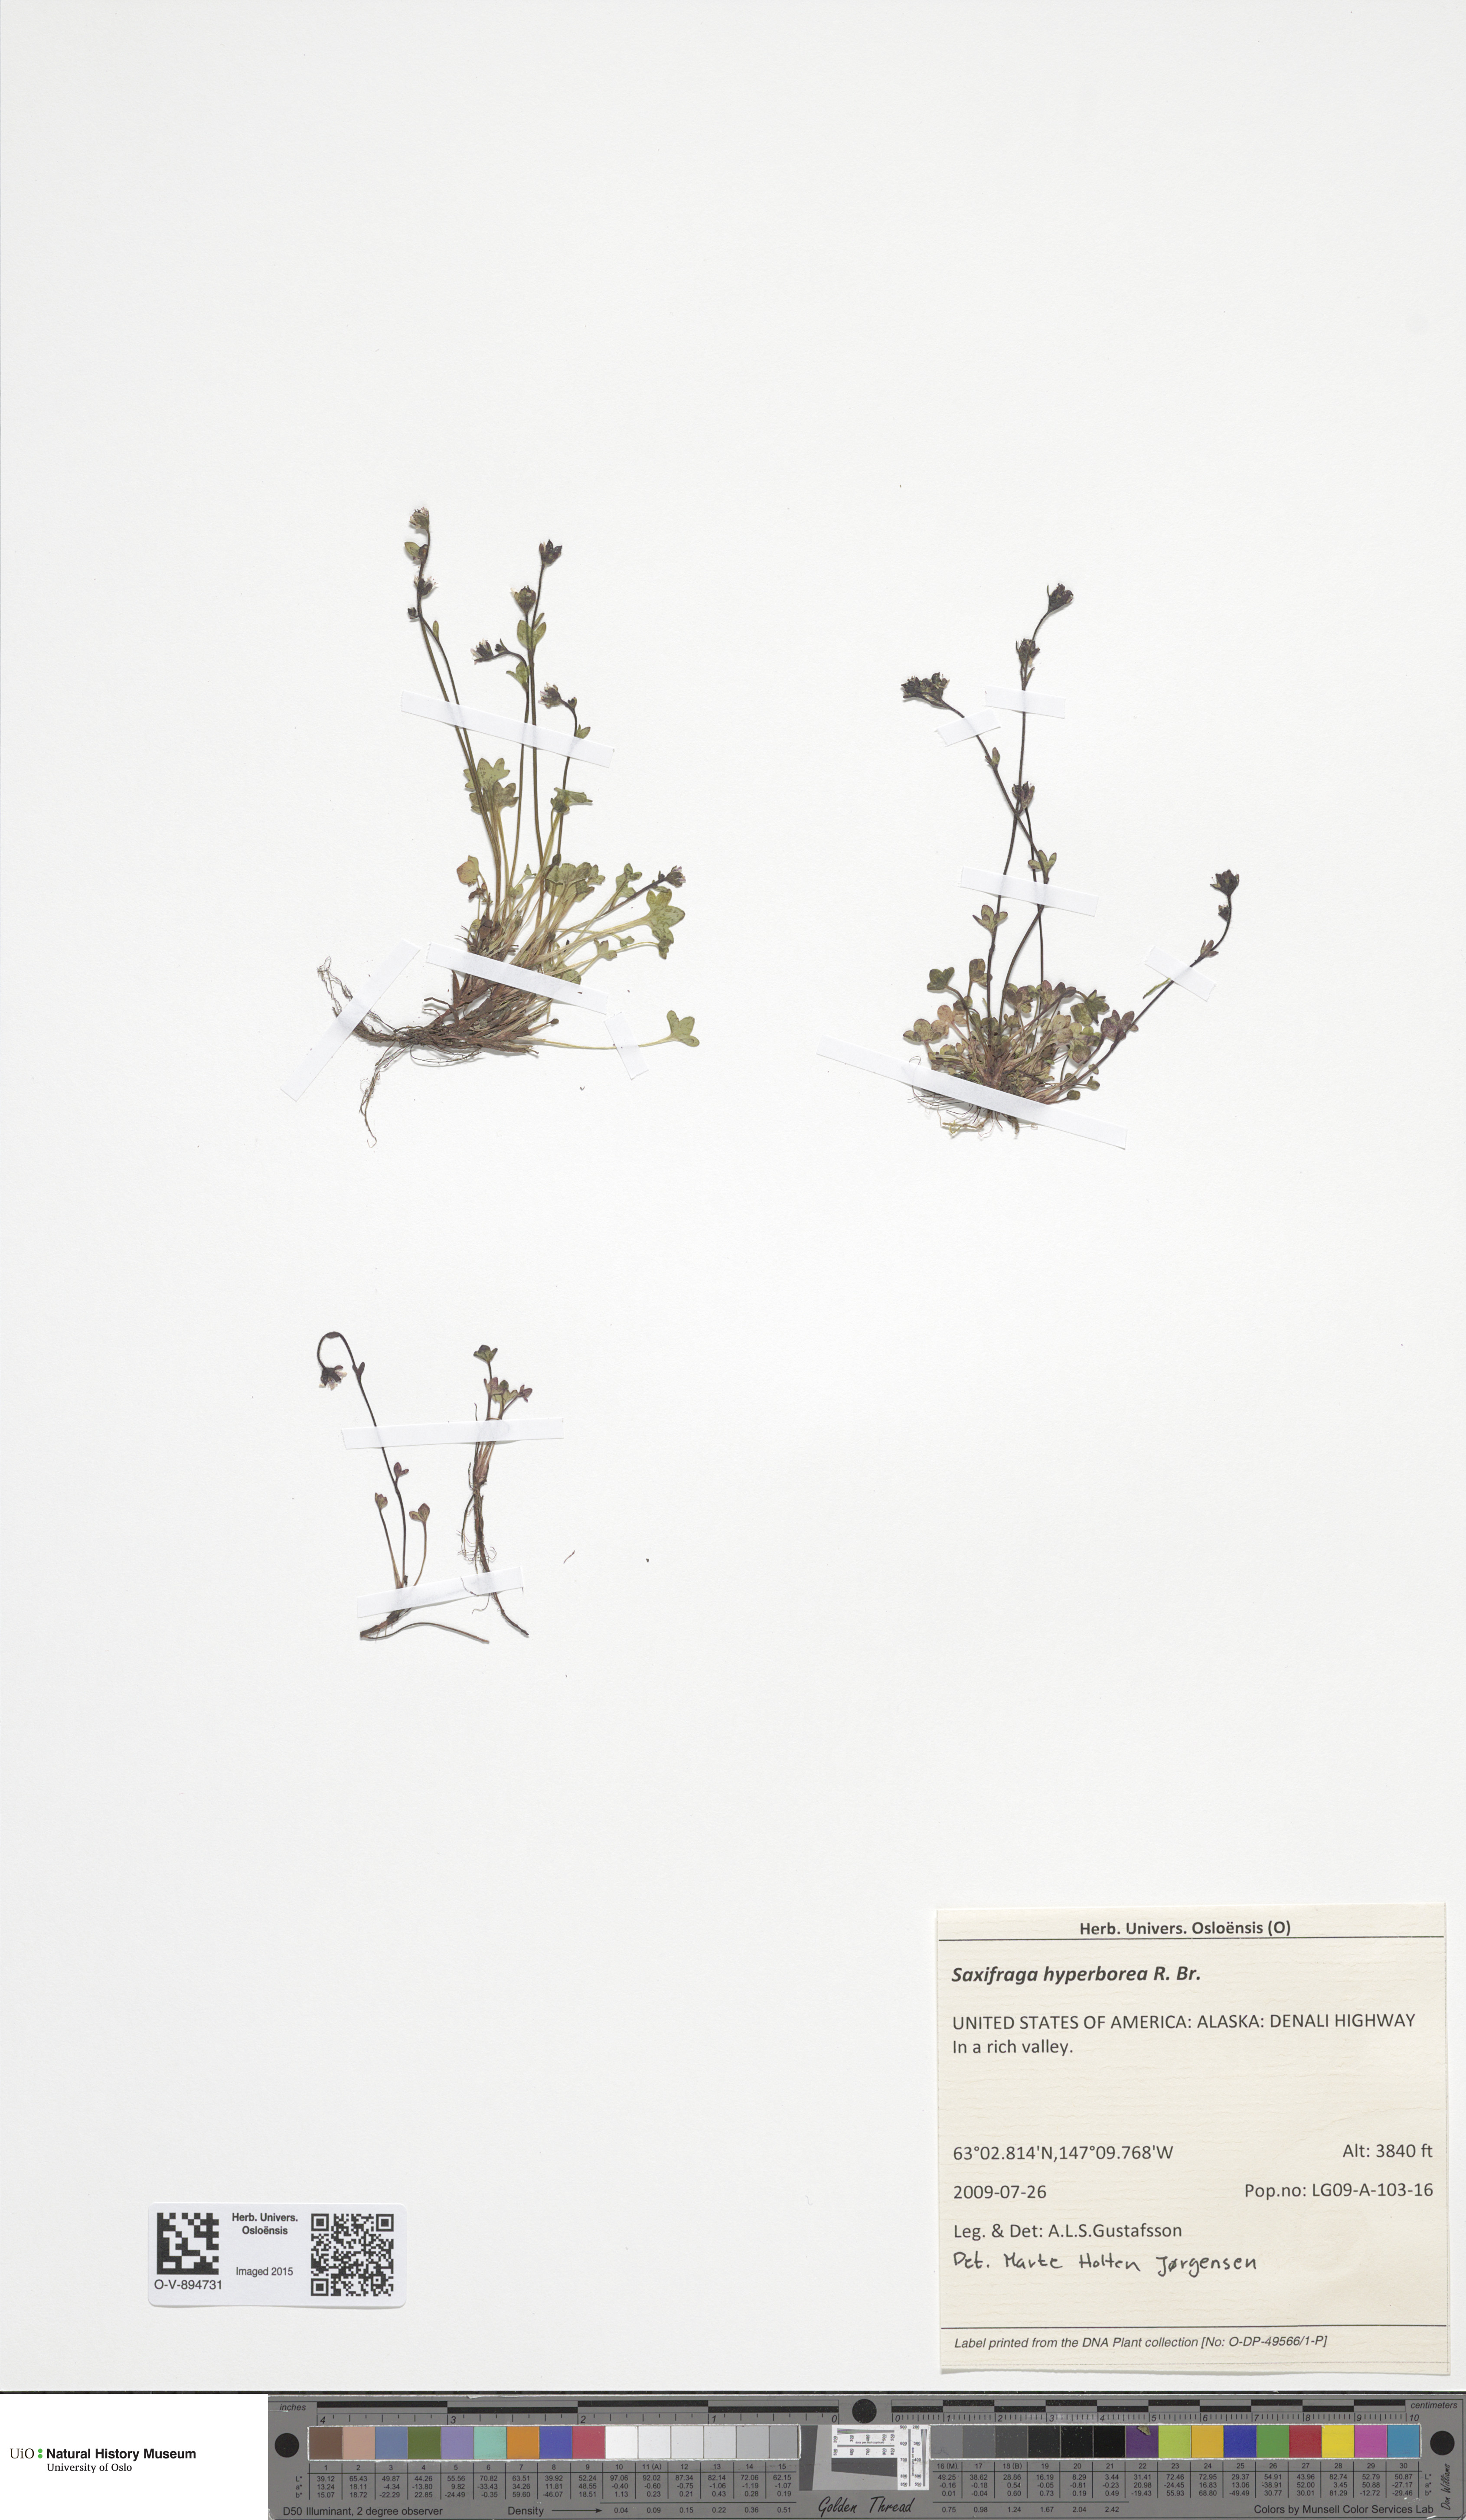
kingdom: Plantae
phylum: Tracheophyta
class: Magnoliopsida
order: Saxifragales
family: Saxifragaceae
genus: Micranthes
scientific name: Micranthes foliolosa
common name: Leafystem saxifrage
